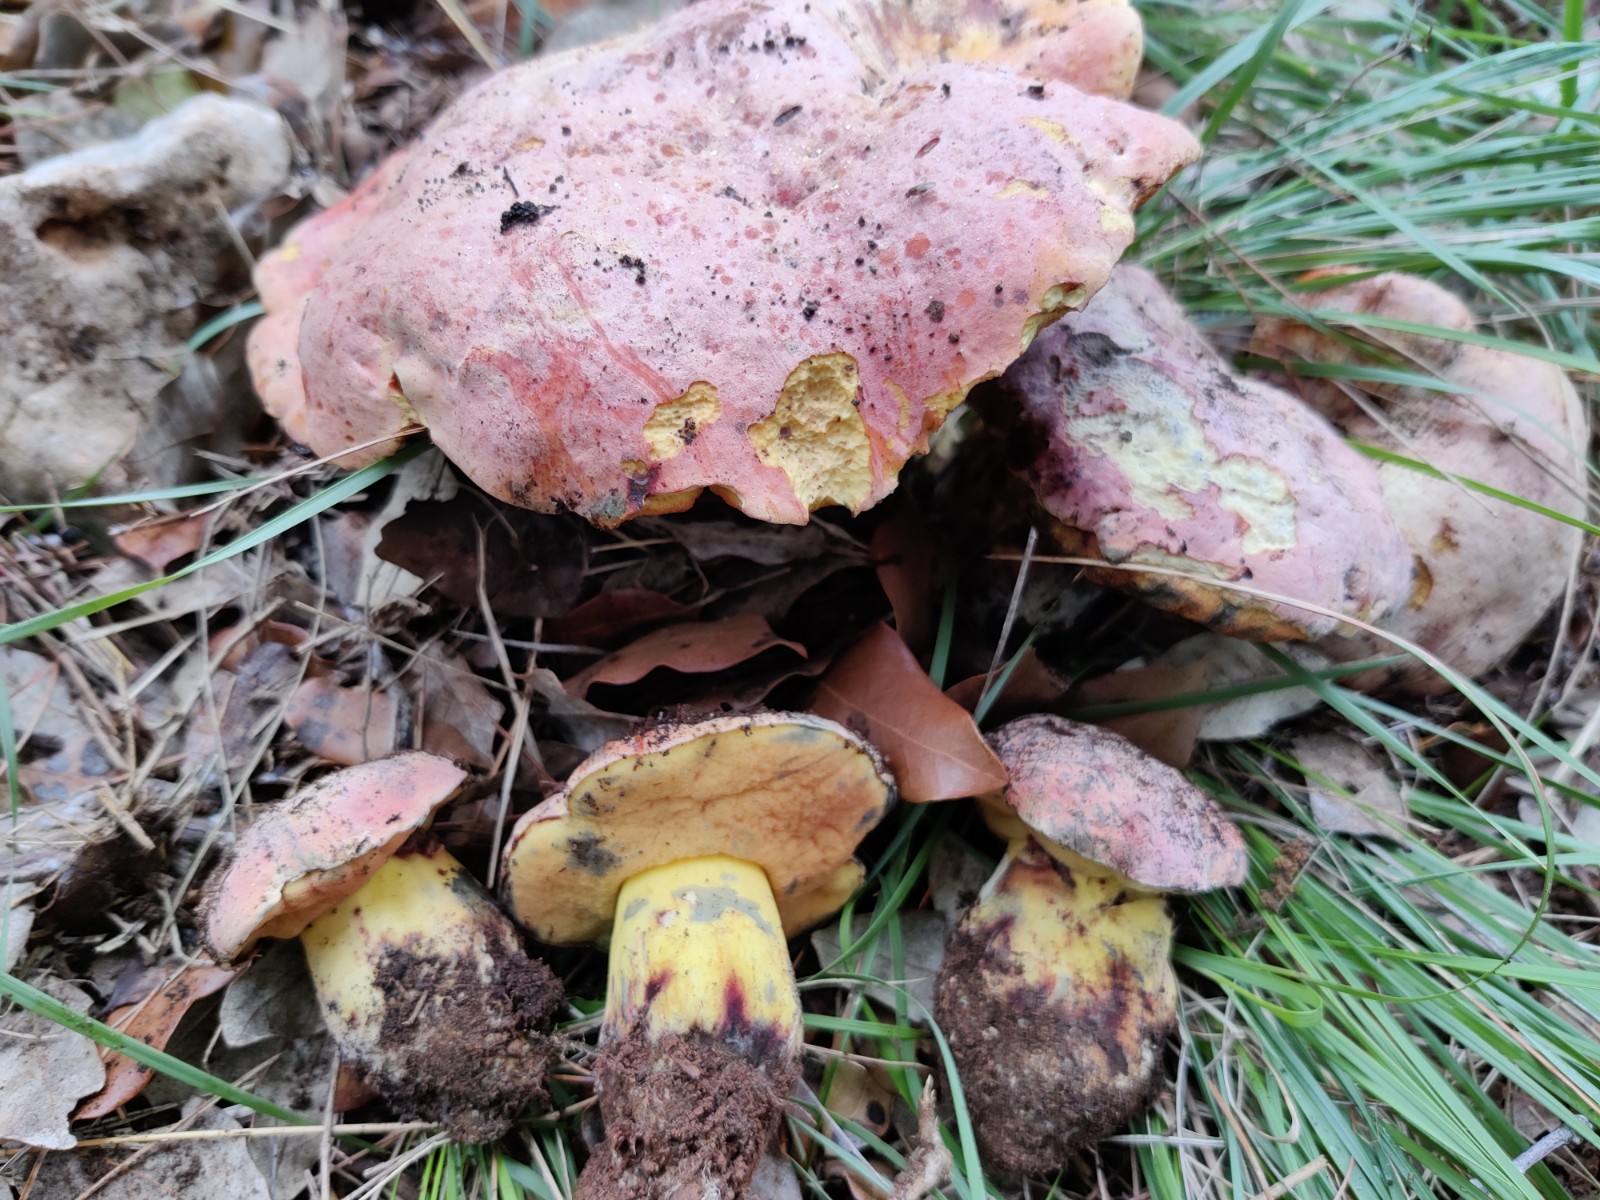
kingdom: Fungi
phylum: Basidiomycota
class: Agaricomycetes
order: Boletales
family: Boletaceae
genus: Rubroboletus
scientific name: Rubroboletus lupinus
